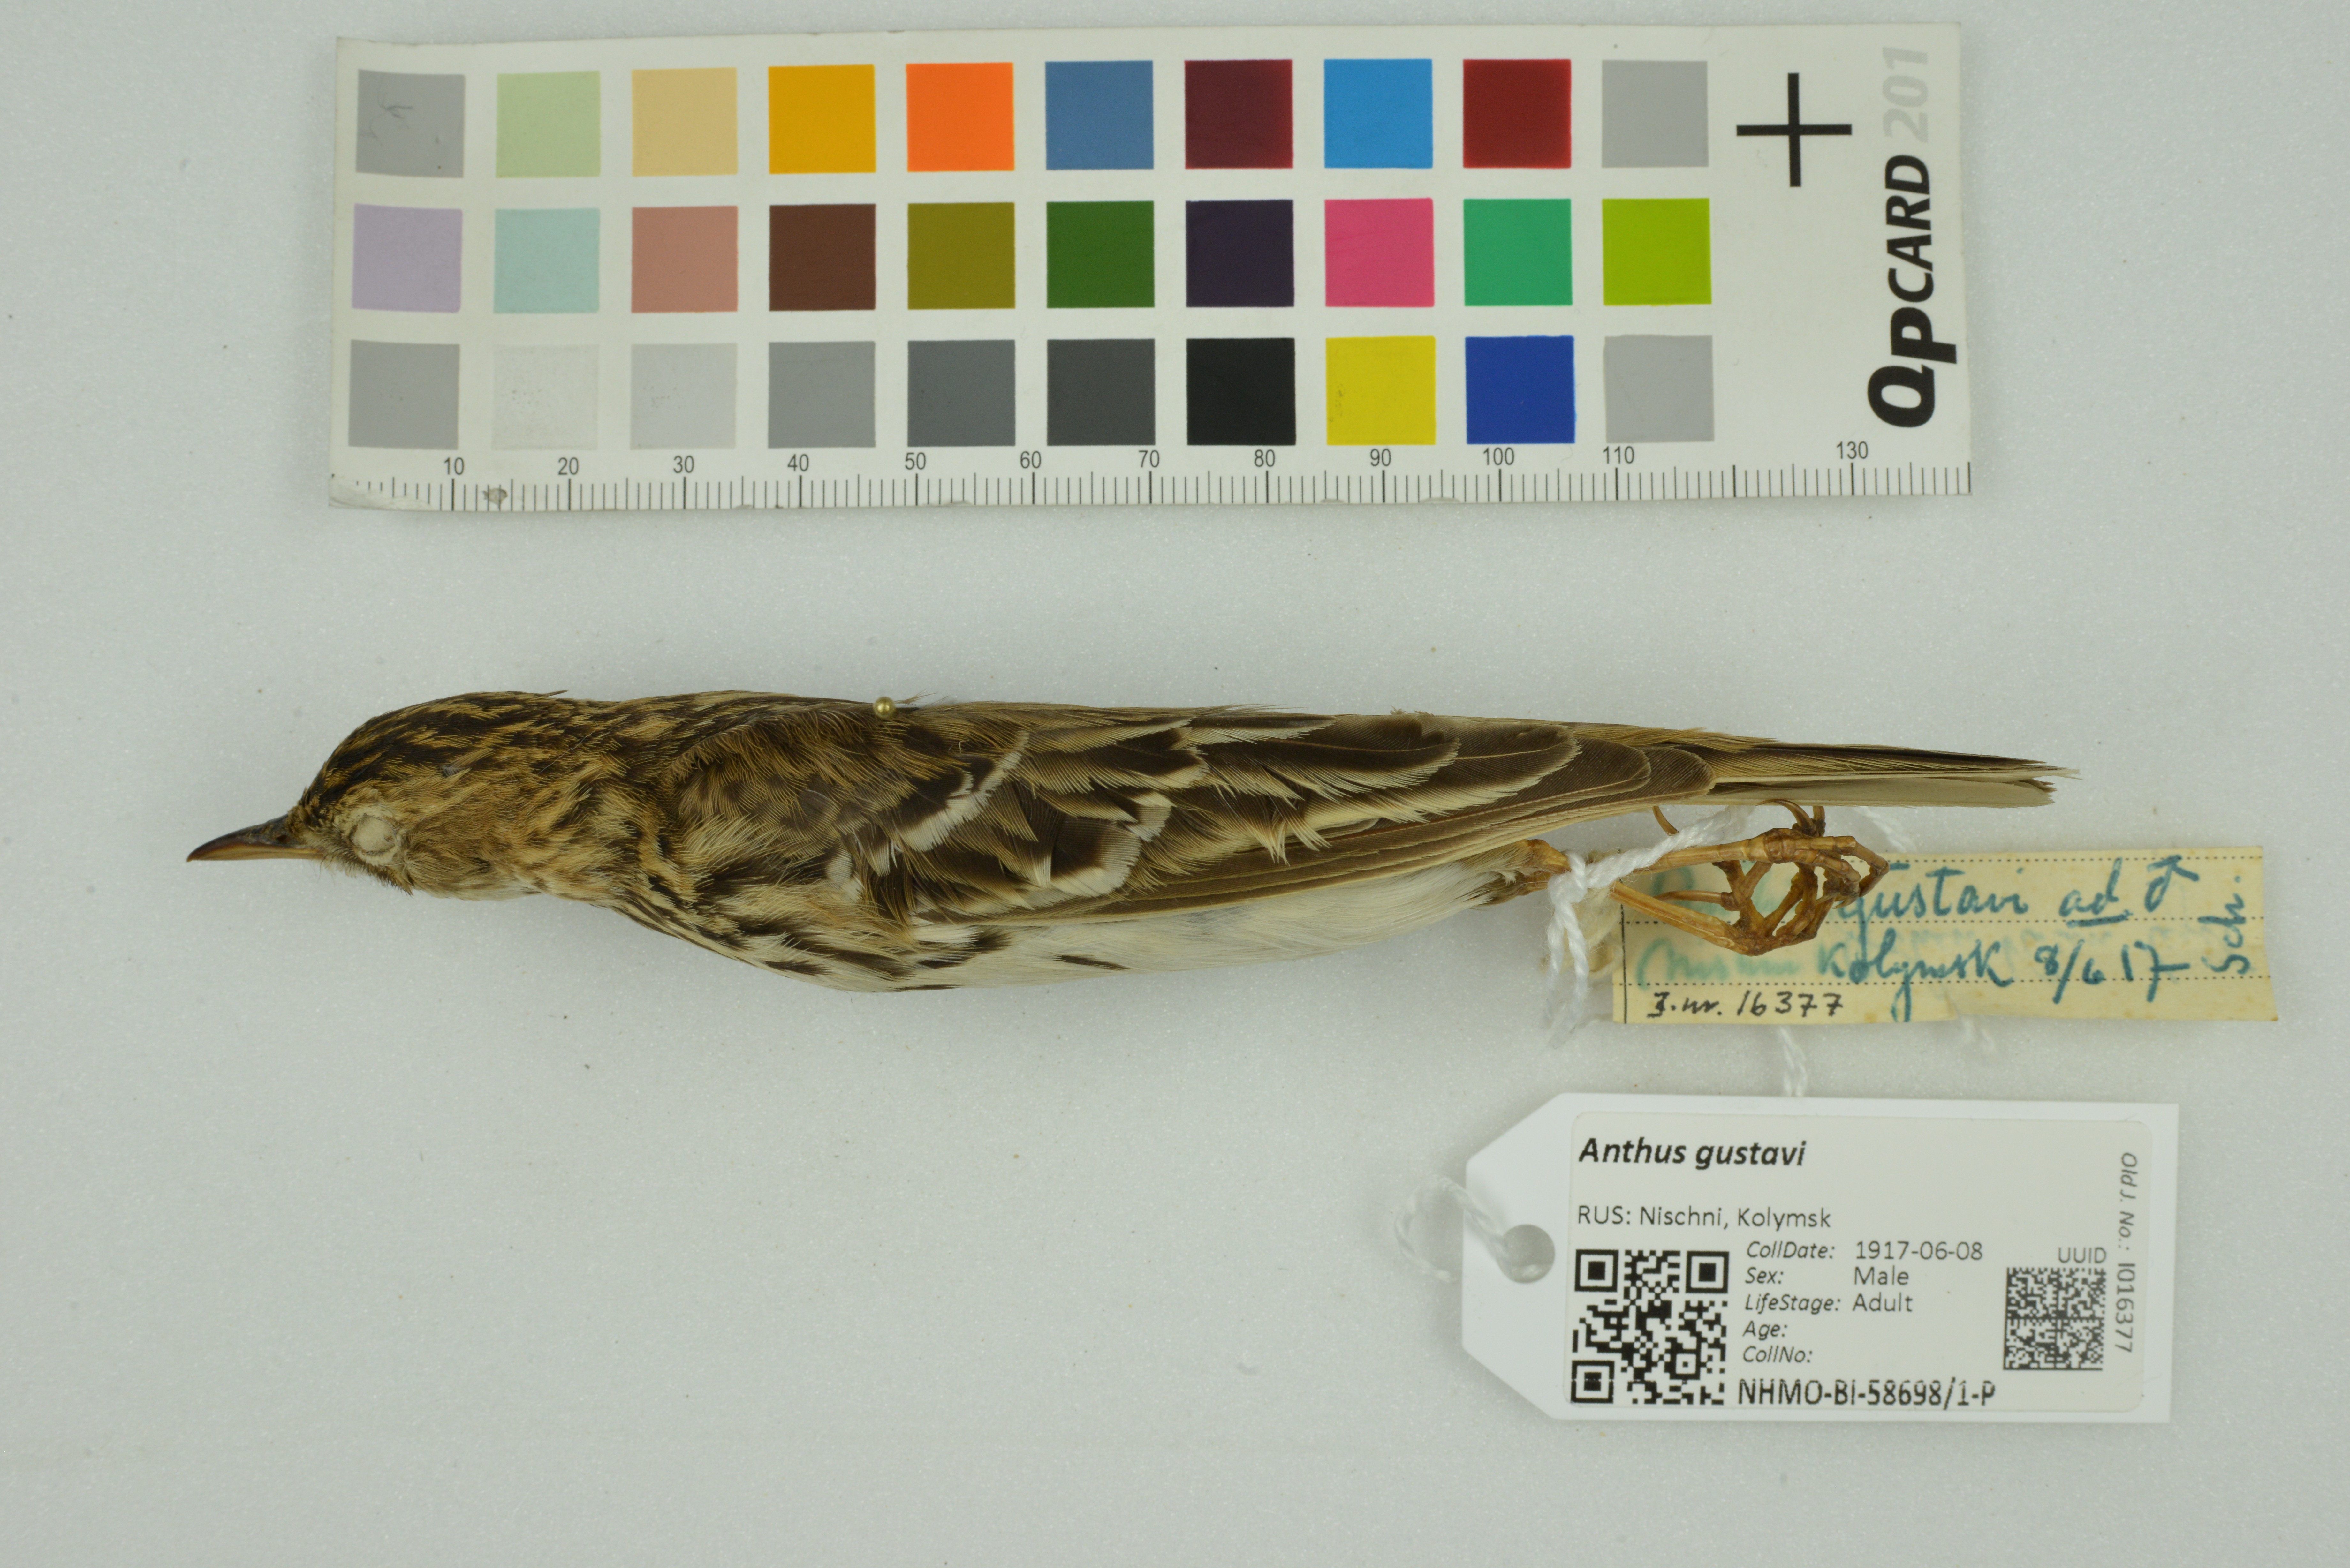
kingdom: Animalia
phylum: Chordata
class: Aves
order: Passeriformes
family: Motacillidae
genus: Anthus
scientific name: Anthus gustavi
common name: Pechora pipit
